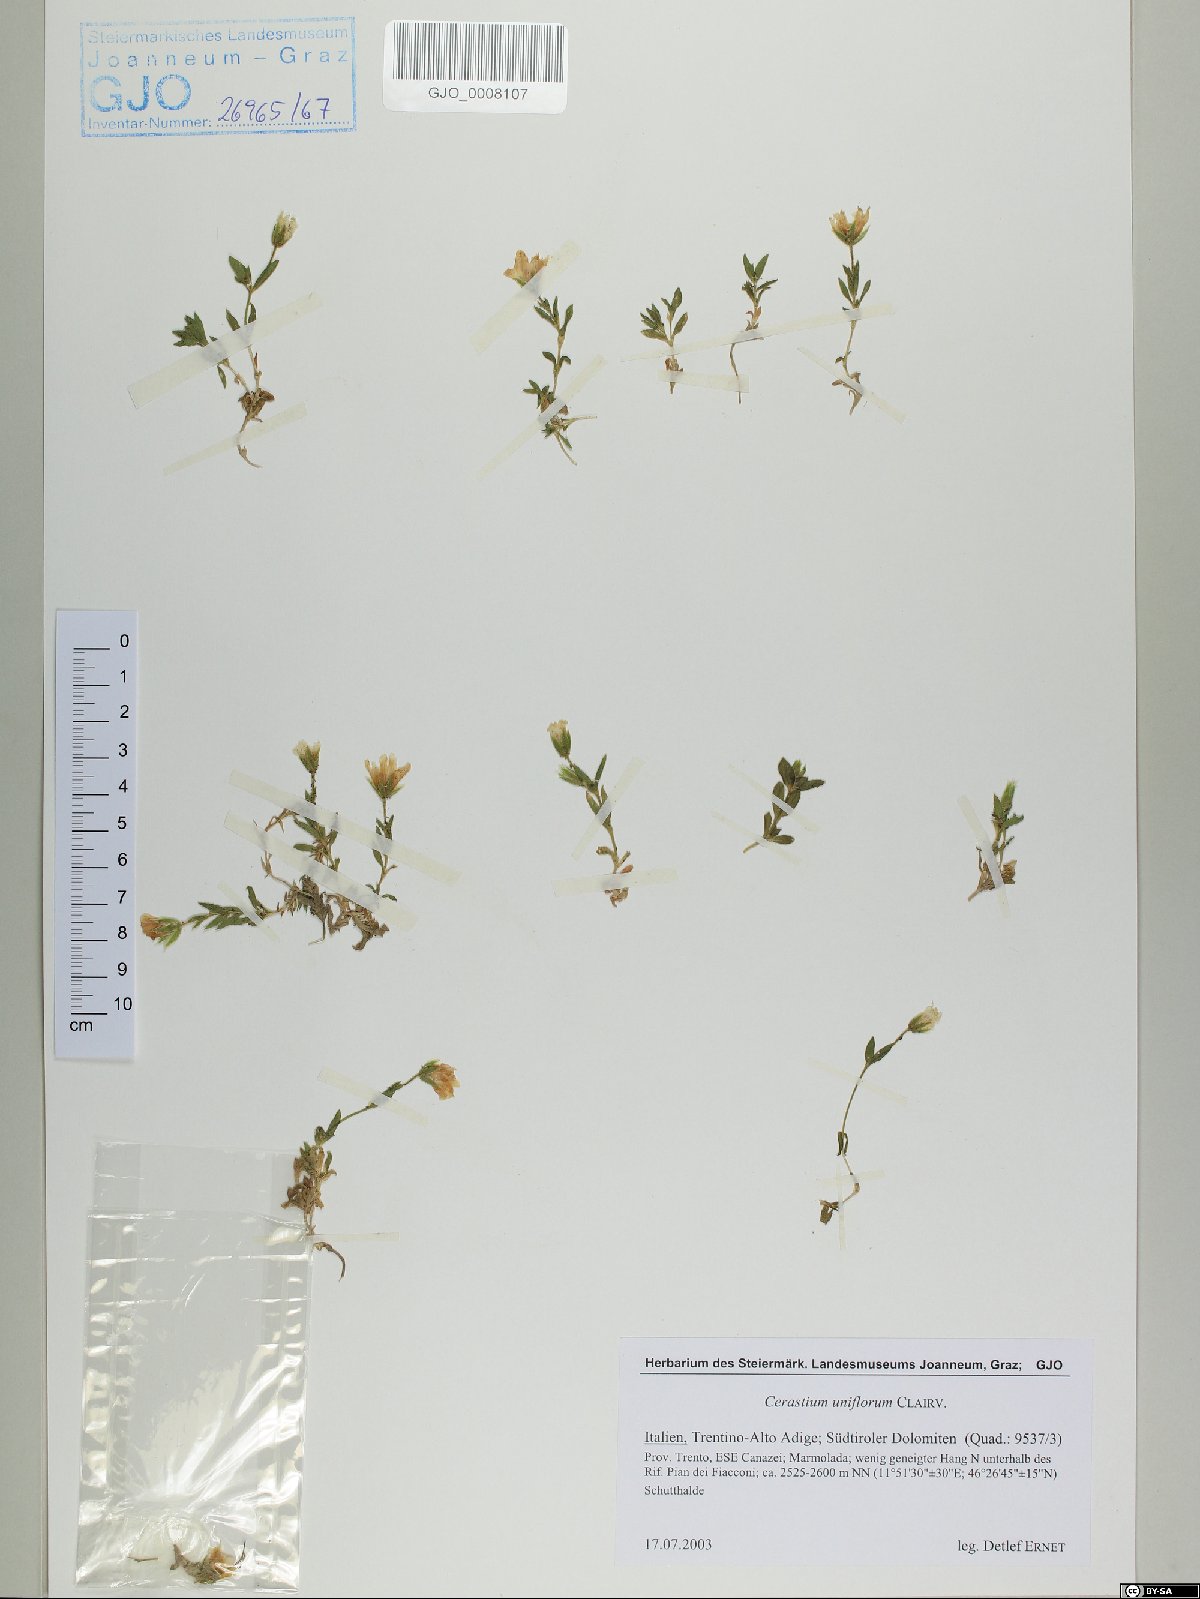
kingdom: Plantae
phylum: Tracheophyta
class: Magnoliopsida
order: Caryophyllales
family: Caryophyllaceae
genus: Cerastium
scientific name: Cerastium uniflorum
